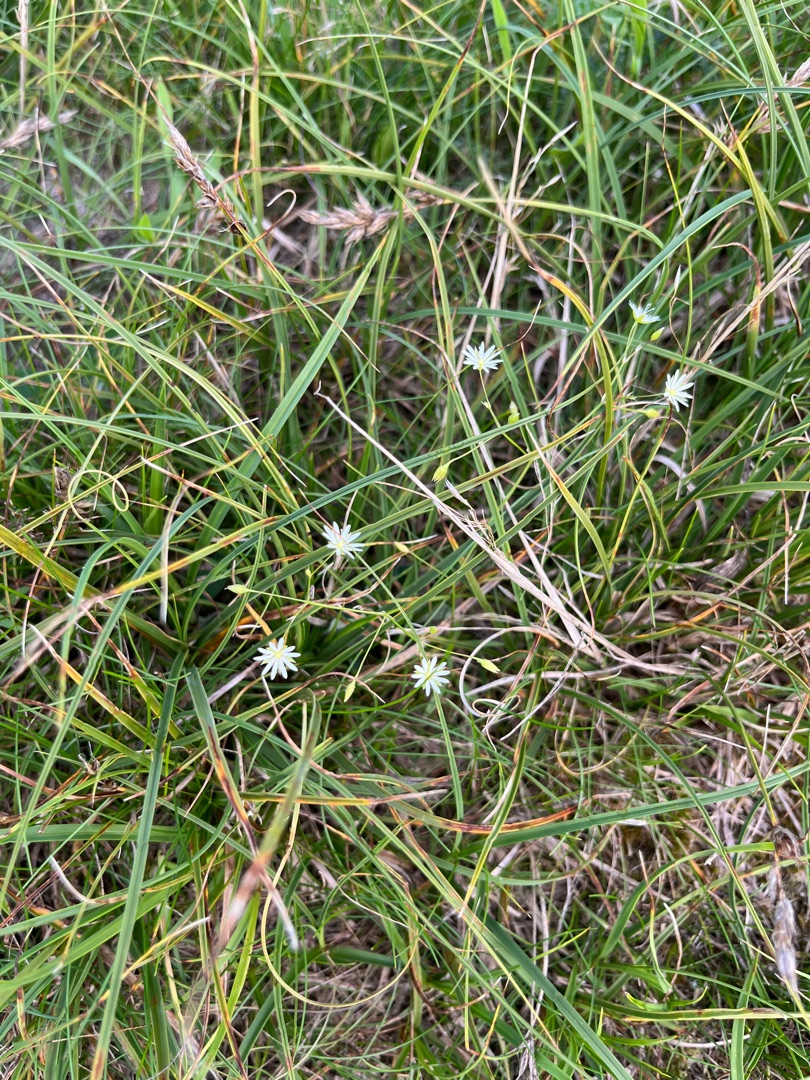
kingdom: Plantae
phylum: Tracheophyta
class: Magnoliopsida
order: Caryophyllales
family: Caryophyllaceae
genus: Stellaria
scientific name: Stellaria graminea
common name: Græsbladet fladstjerne
